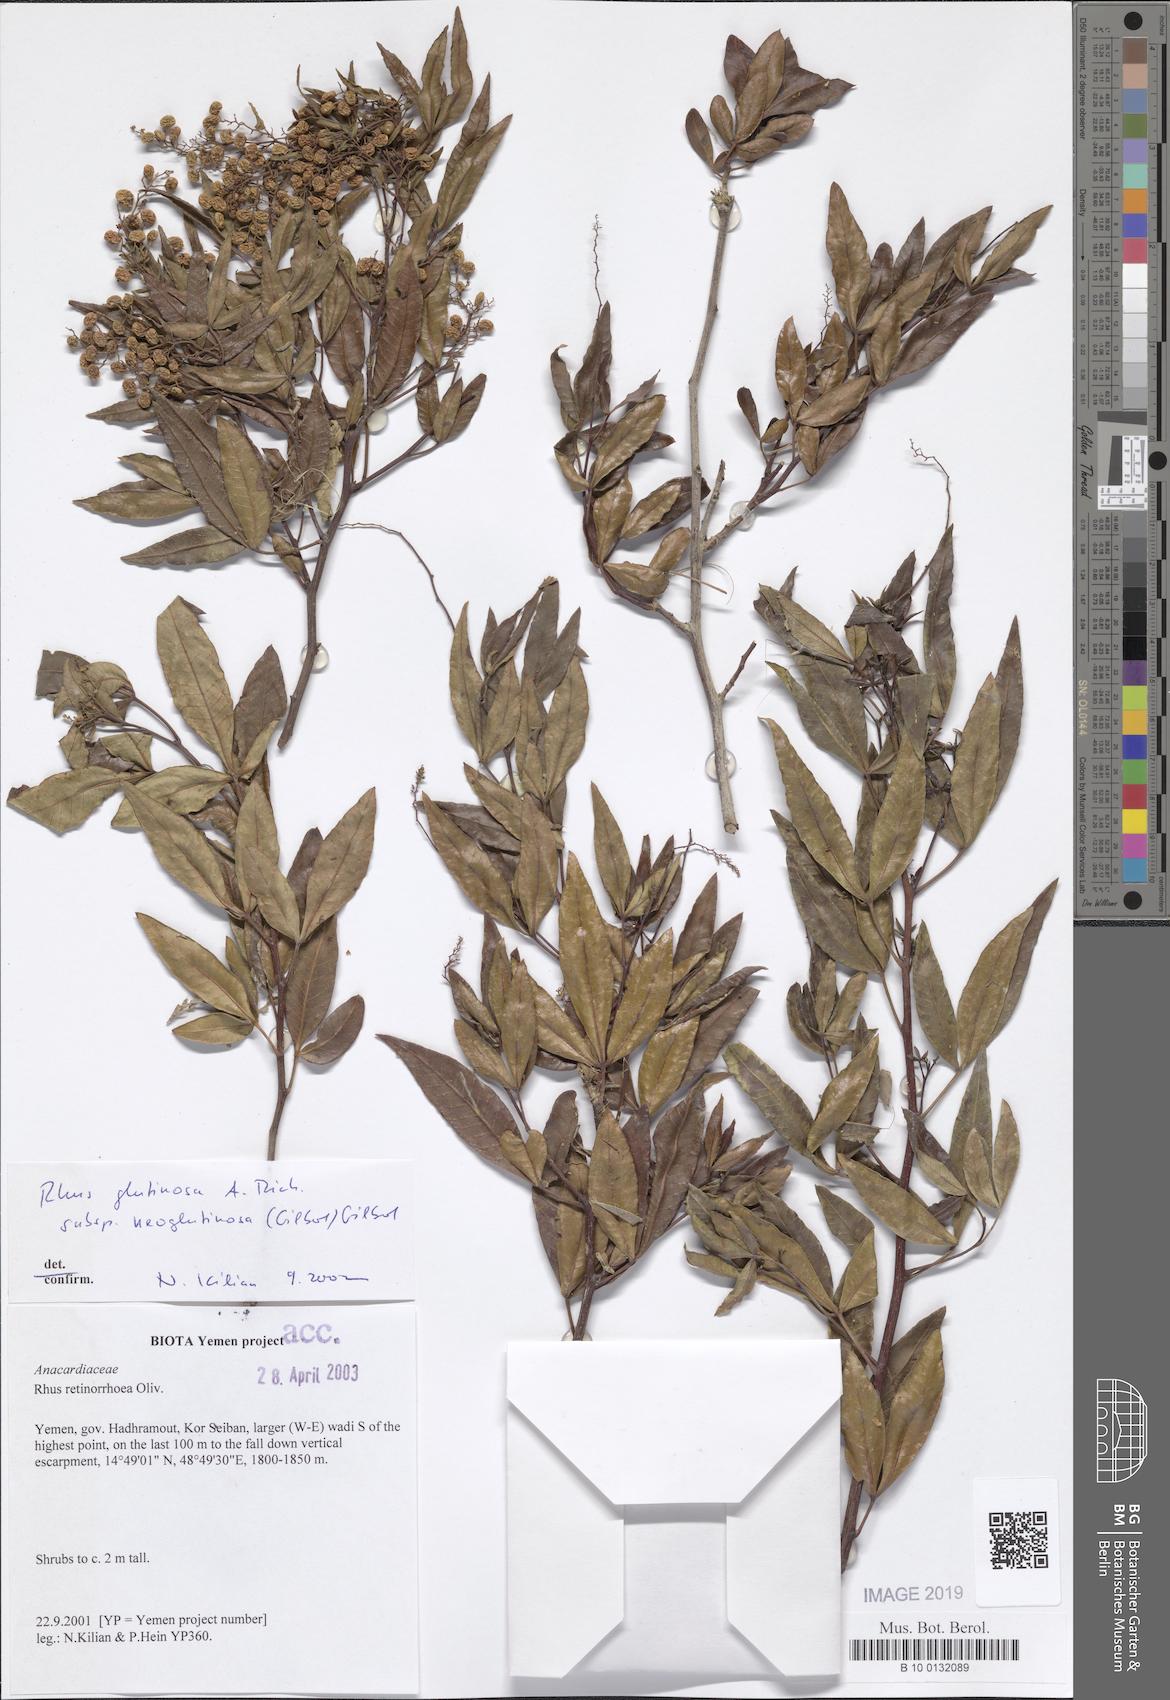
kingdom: Plantae
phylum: Tracheophyta
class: Magnoliopsida
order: Sapindales
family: Anacardiaceae
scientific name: Anacardiaceae
